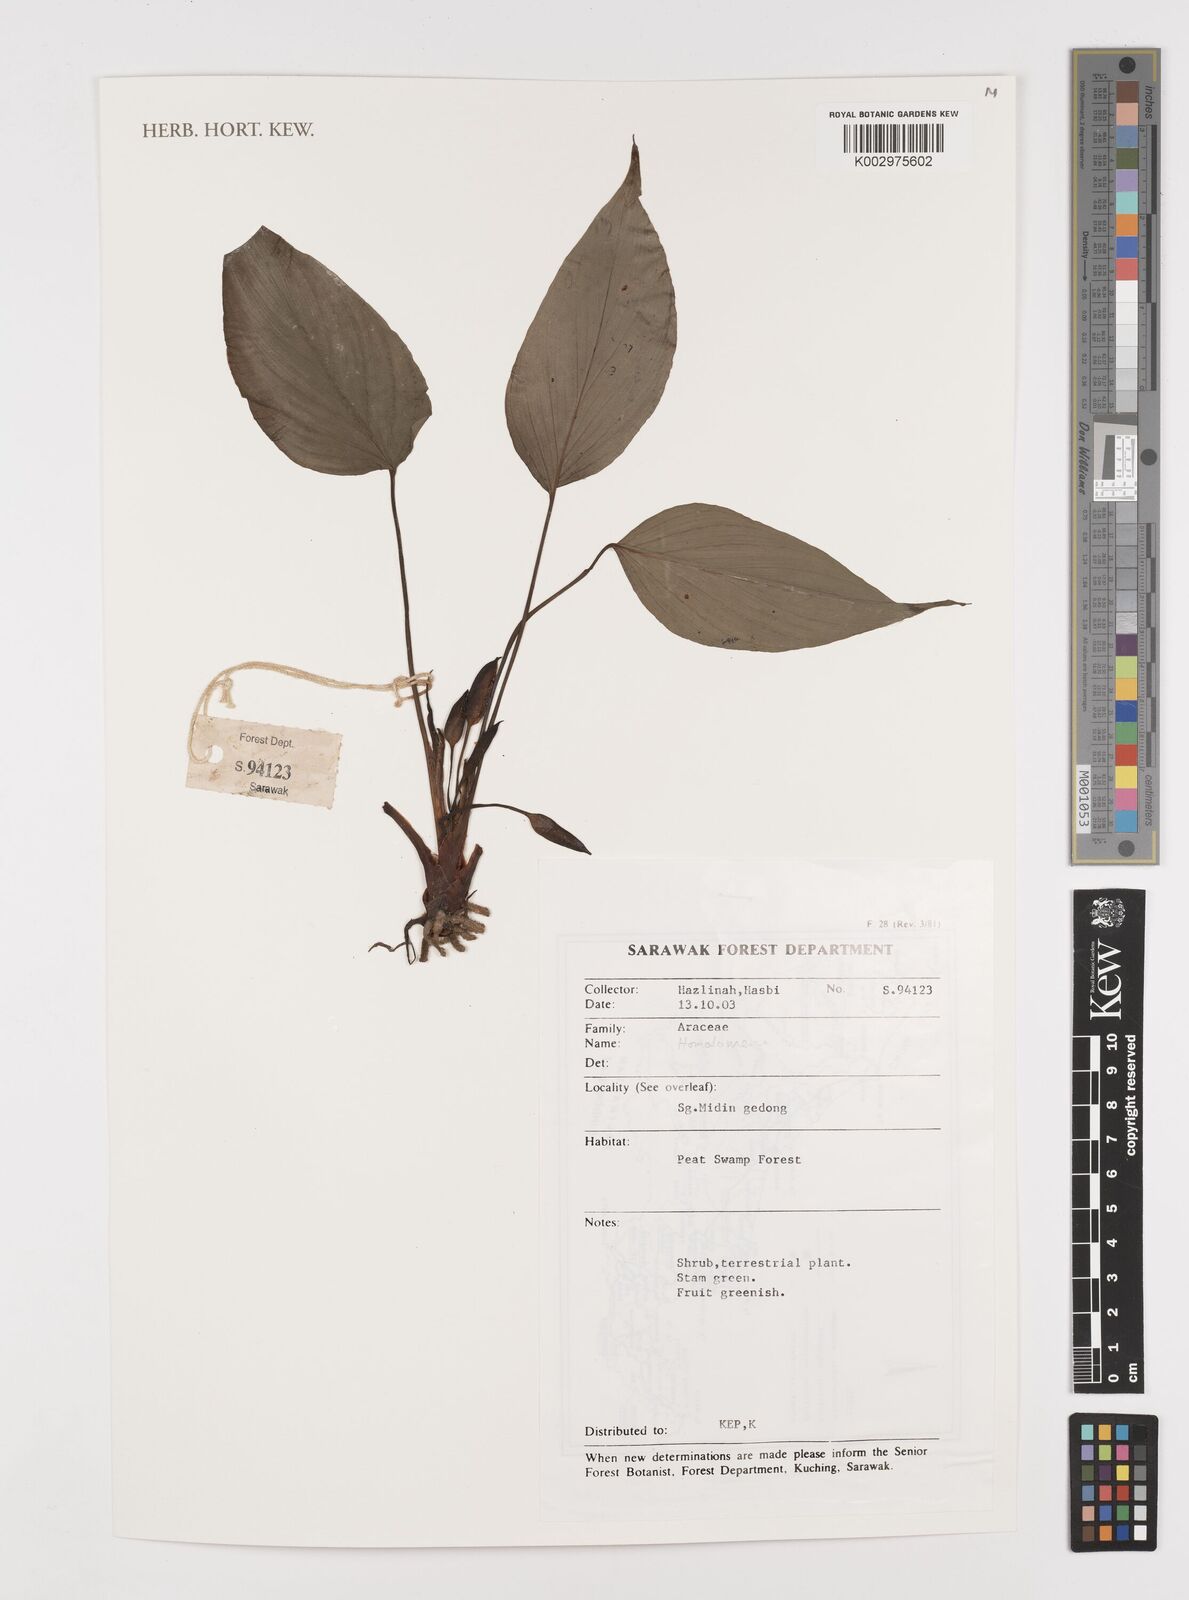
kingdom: Plantae
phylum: Tracheophyta
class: Liliopsida
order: Alismatales
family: Araceae
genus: Homalomena
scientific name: Homalomena
